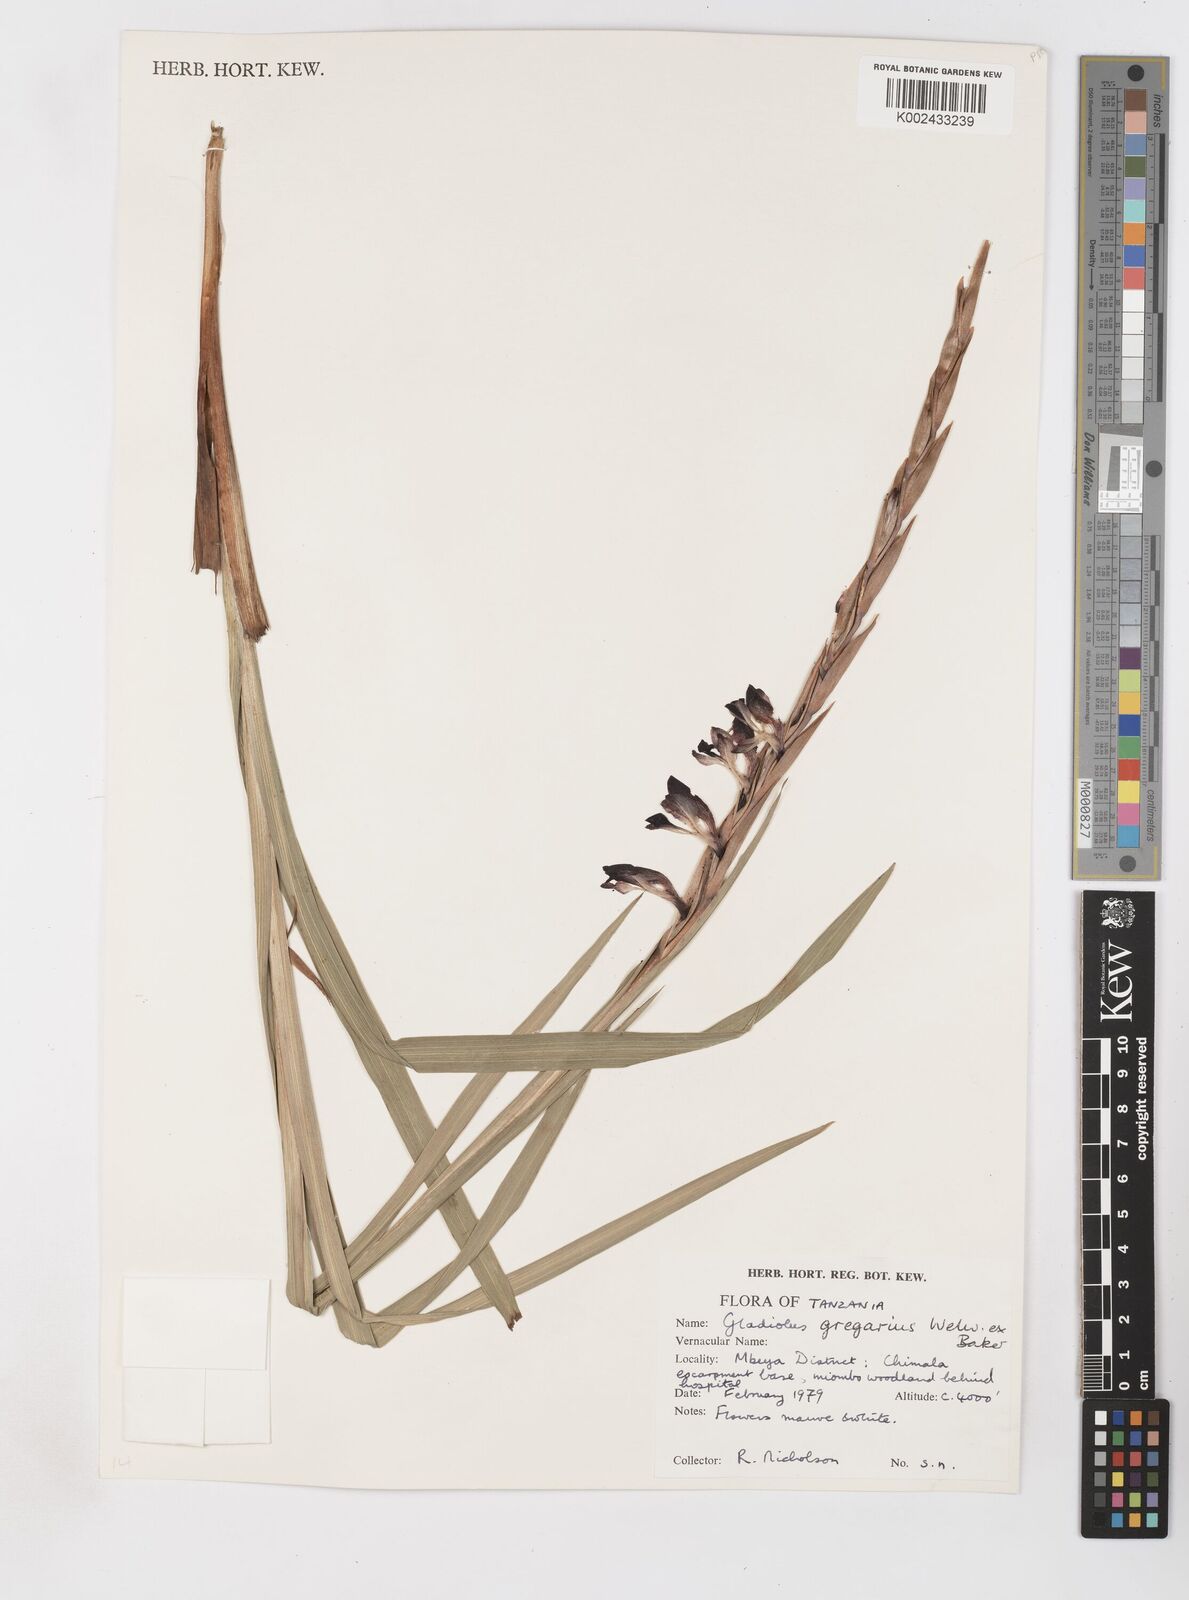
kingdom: Plantae
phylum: Tracheophyta
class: Liliopsida
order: Asparagales
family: Iridaceae
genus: Gladiolus
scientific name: Gladiolus gregarius
